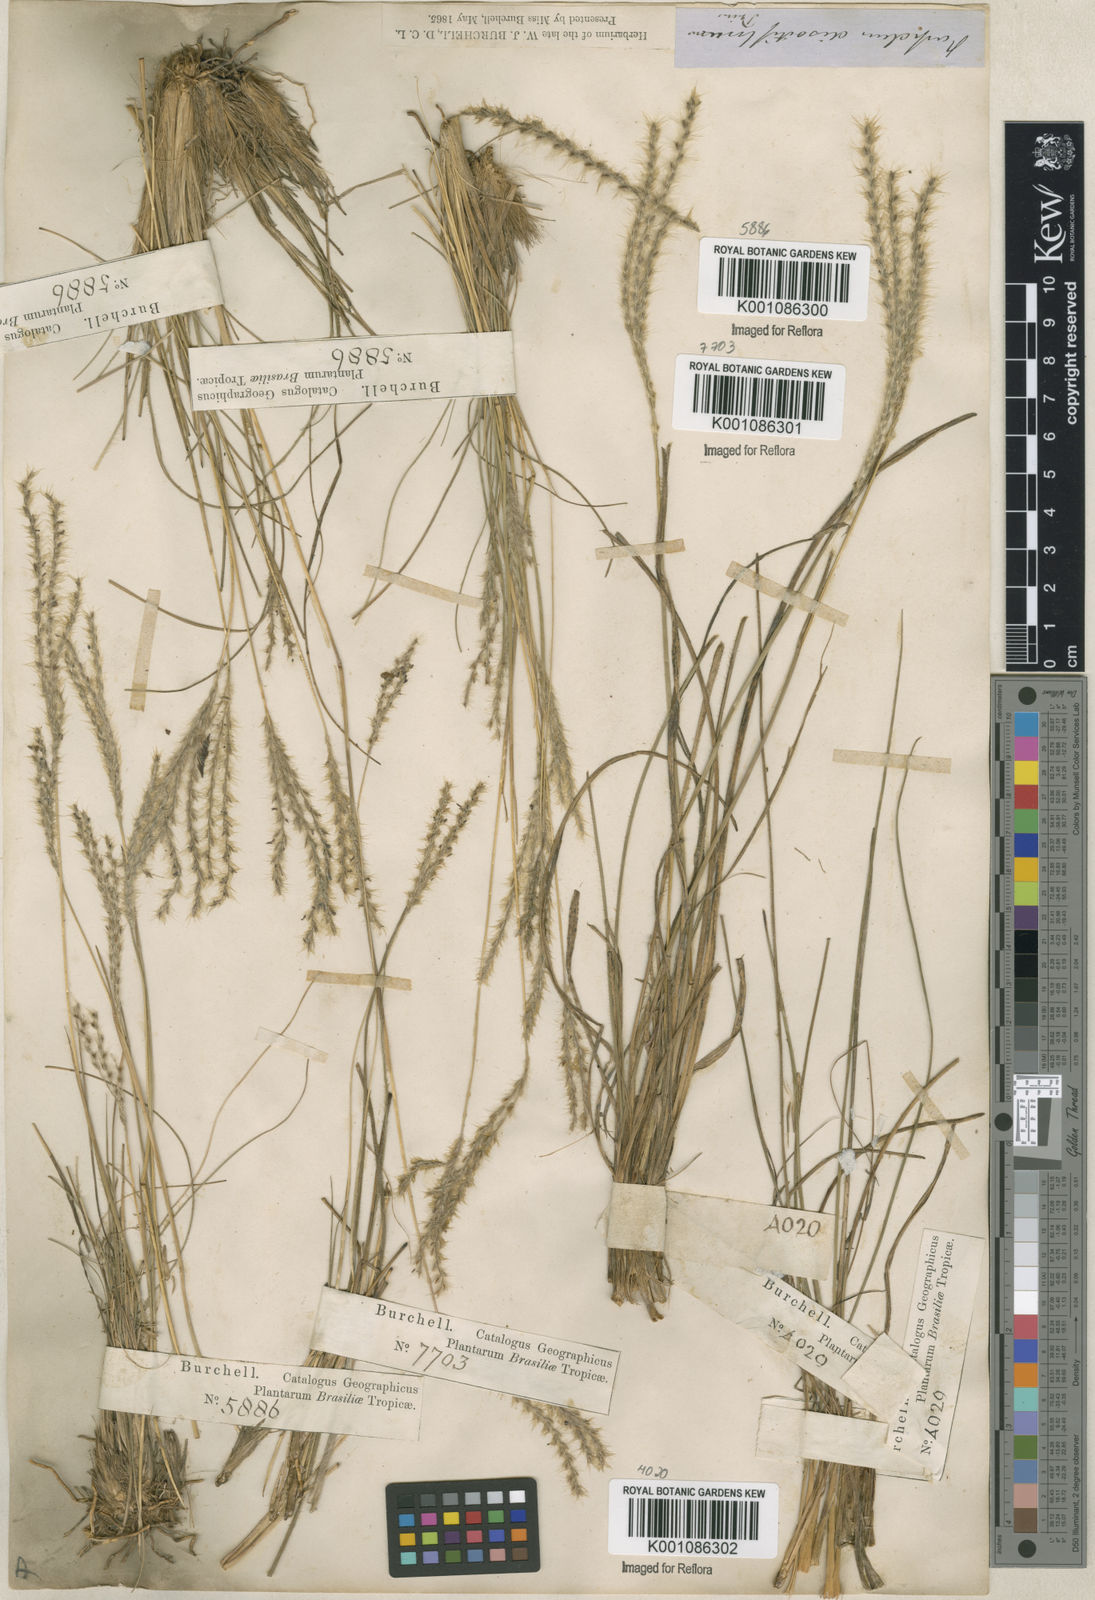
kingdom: Plantae
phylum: Tracheophyta
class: Liliopsida
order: Poales
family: Poaceae
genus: Axonopus
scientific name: Axonopus brasiliensis
